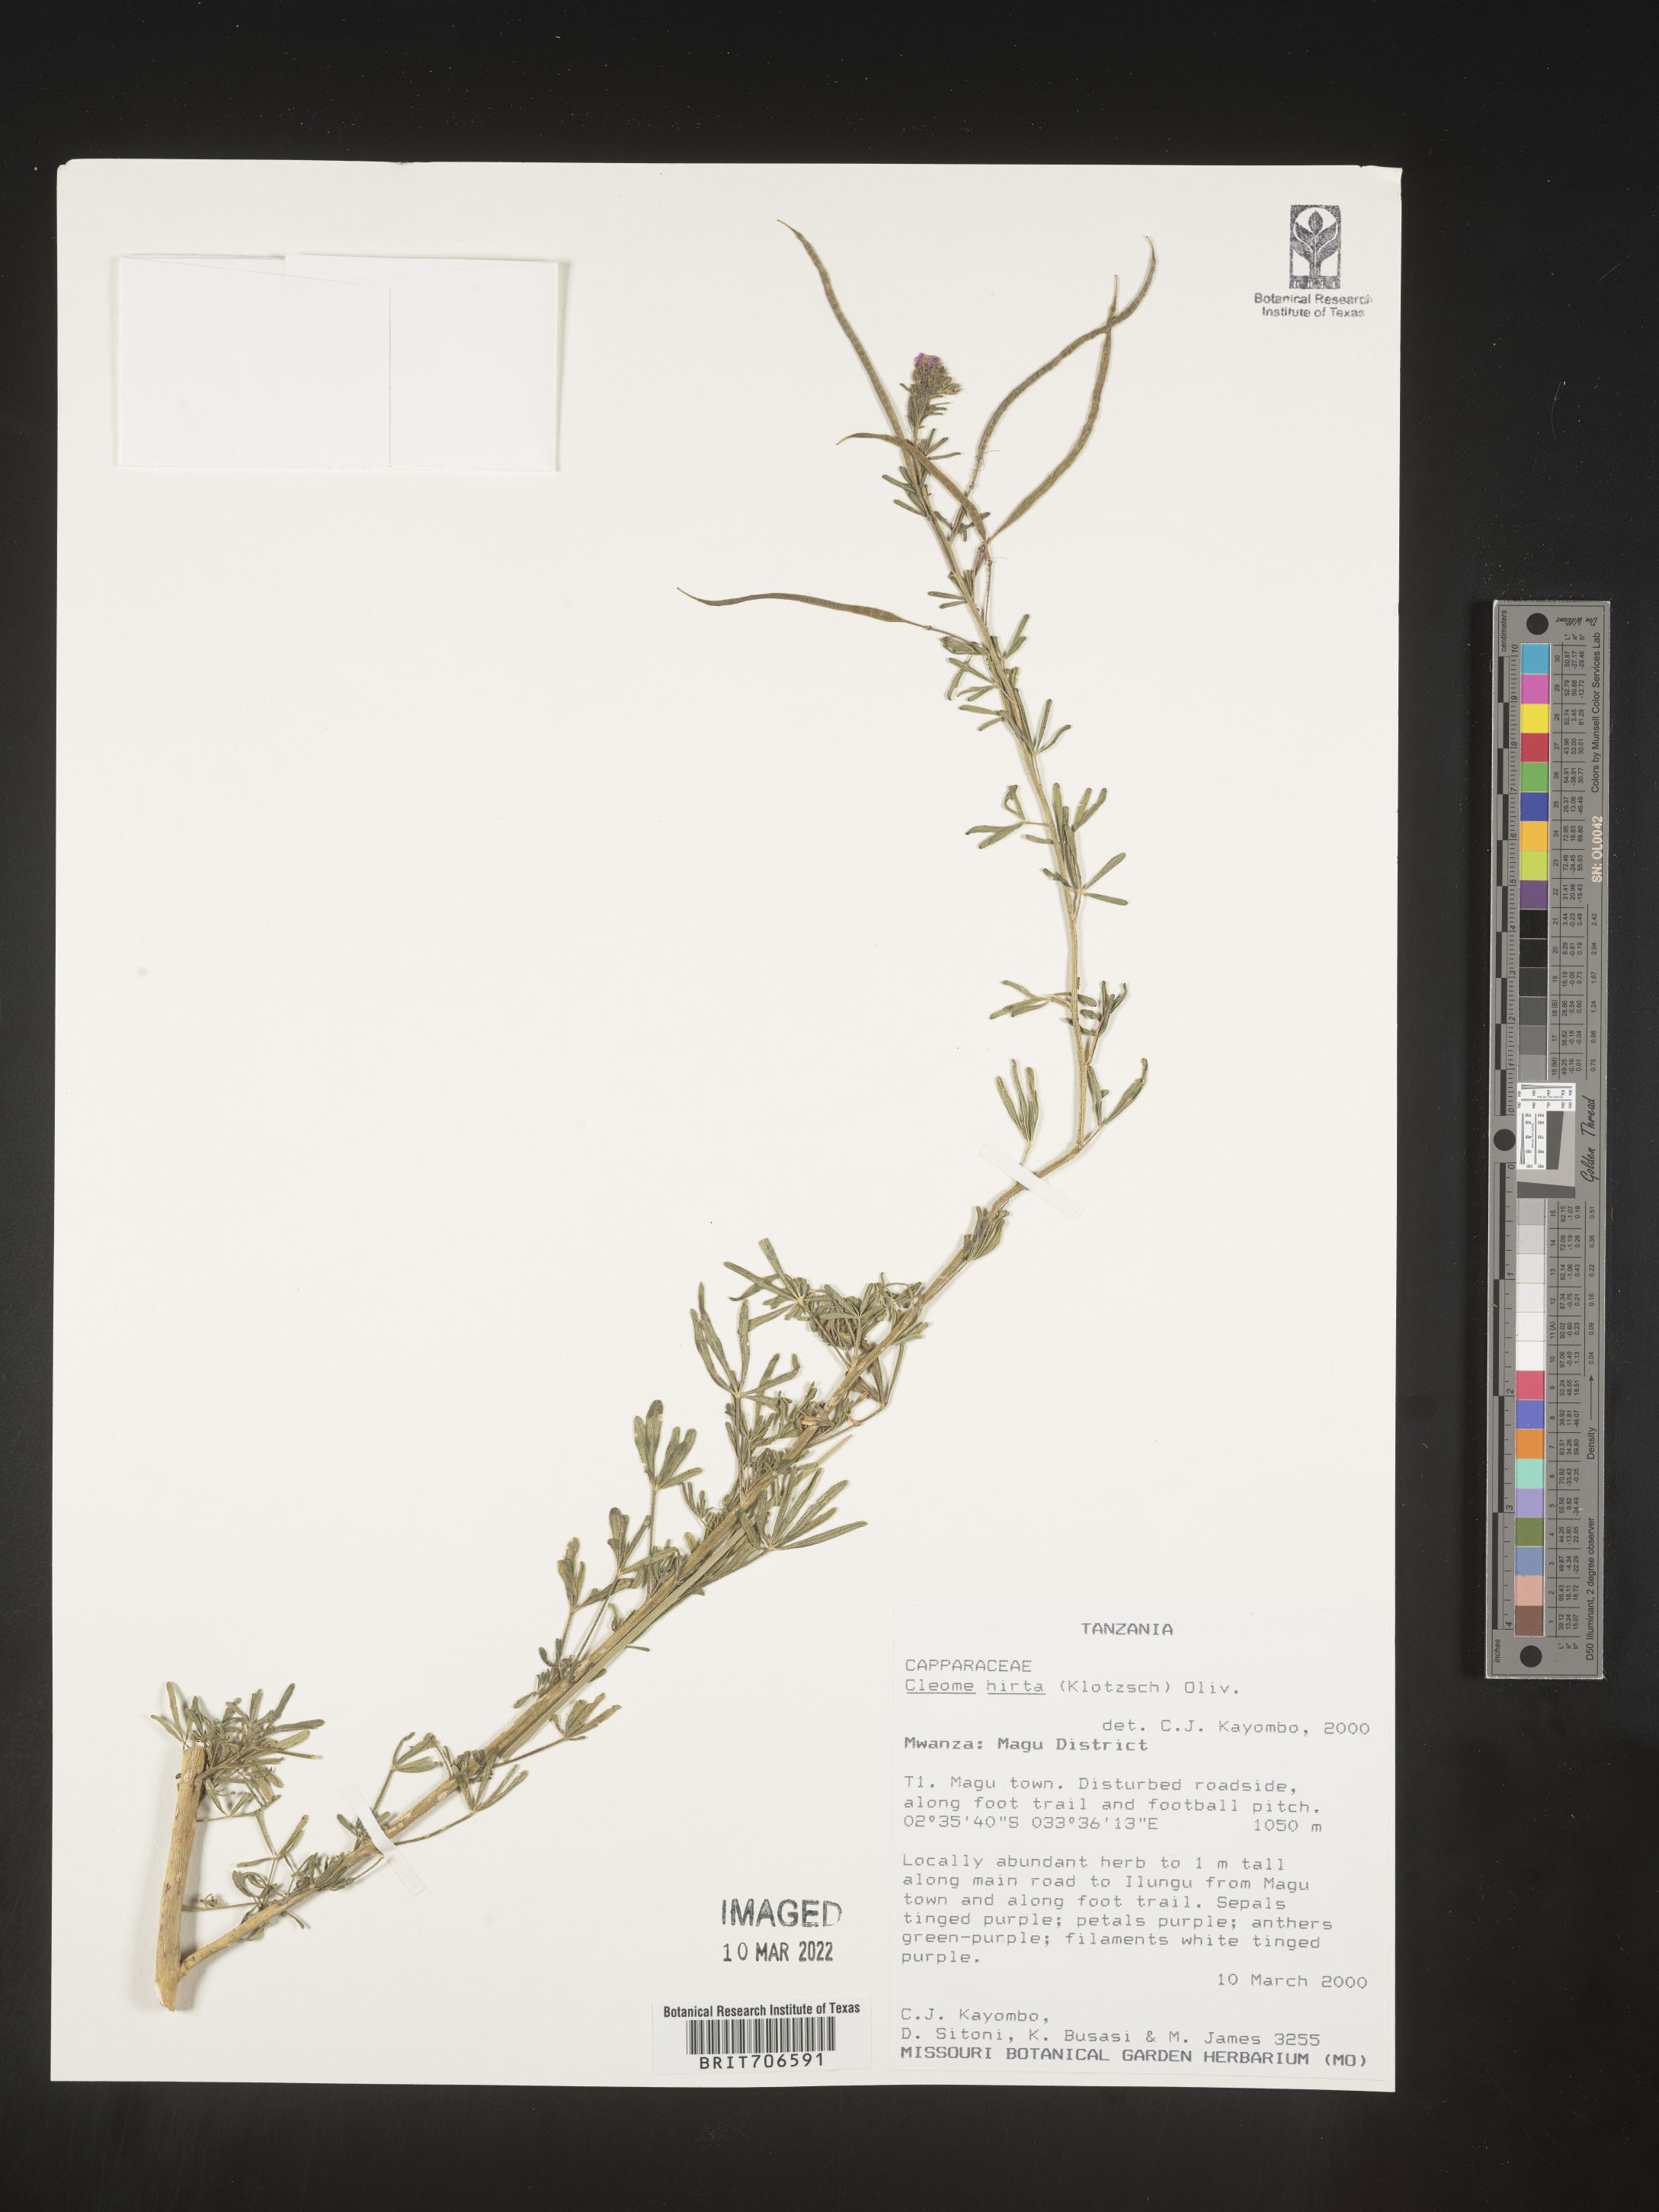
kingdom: Plantae
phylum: Tracheophyta
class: Magnoliopsida
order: Brassicales
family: Cleomaceae
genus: Cleome
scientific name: Cleome
